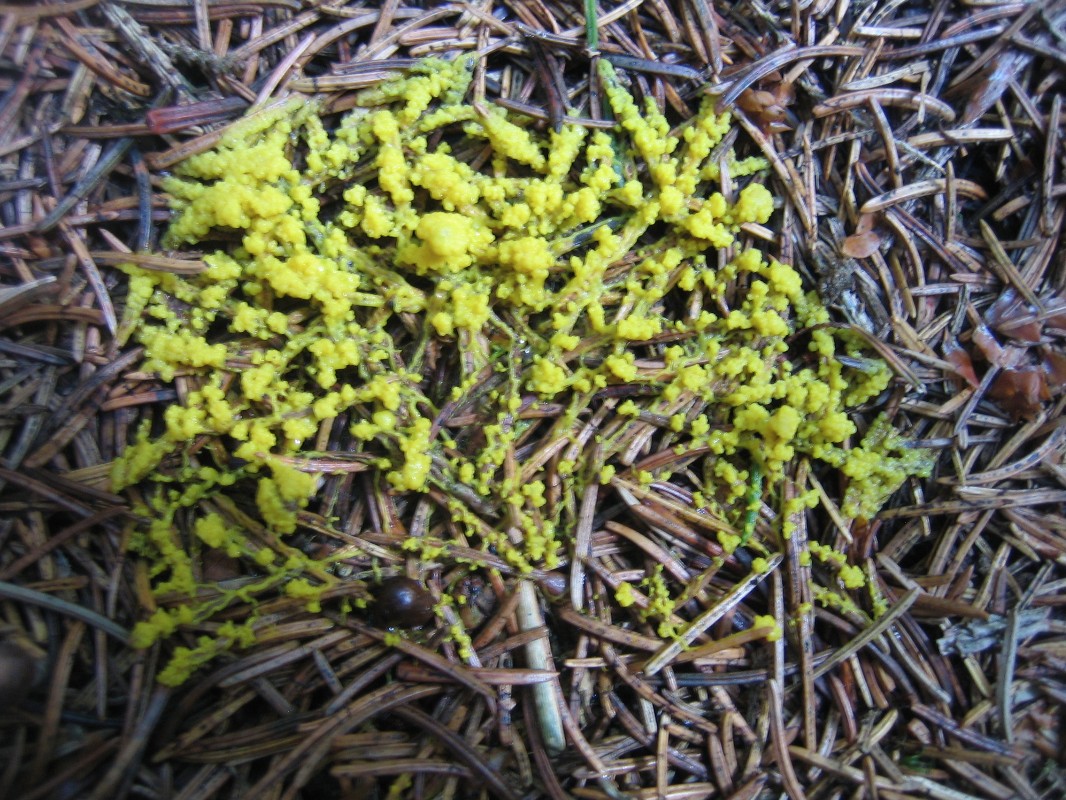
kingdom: Protozoa
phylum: Mycetozoa
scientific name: Mycetozoa
